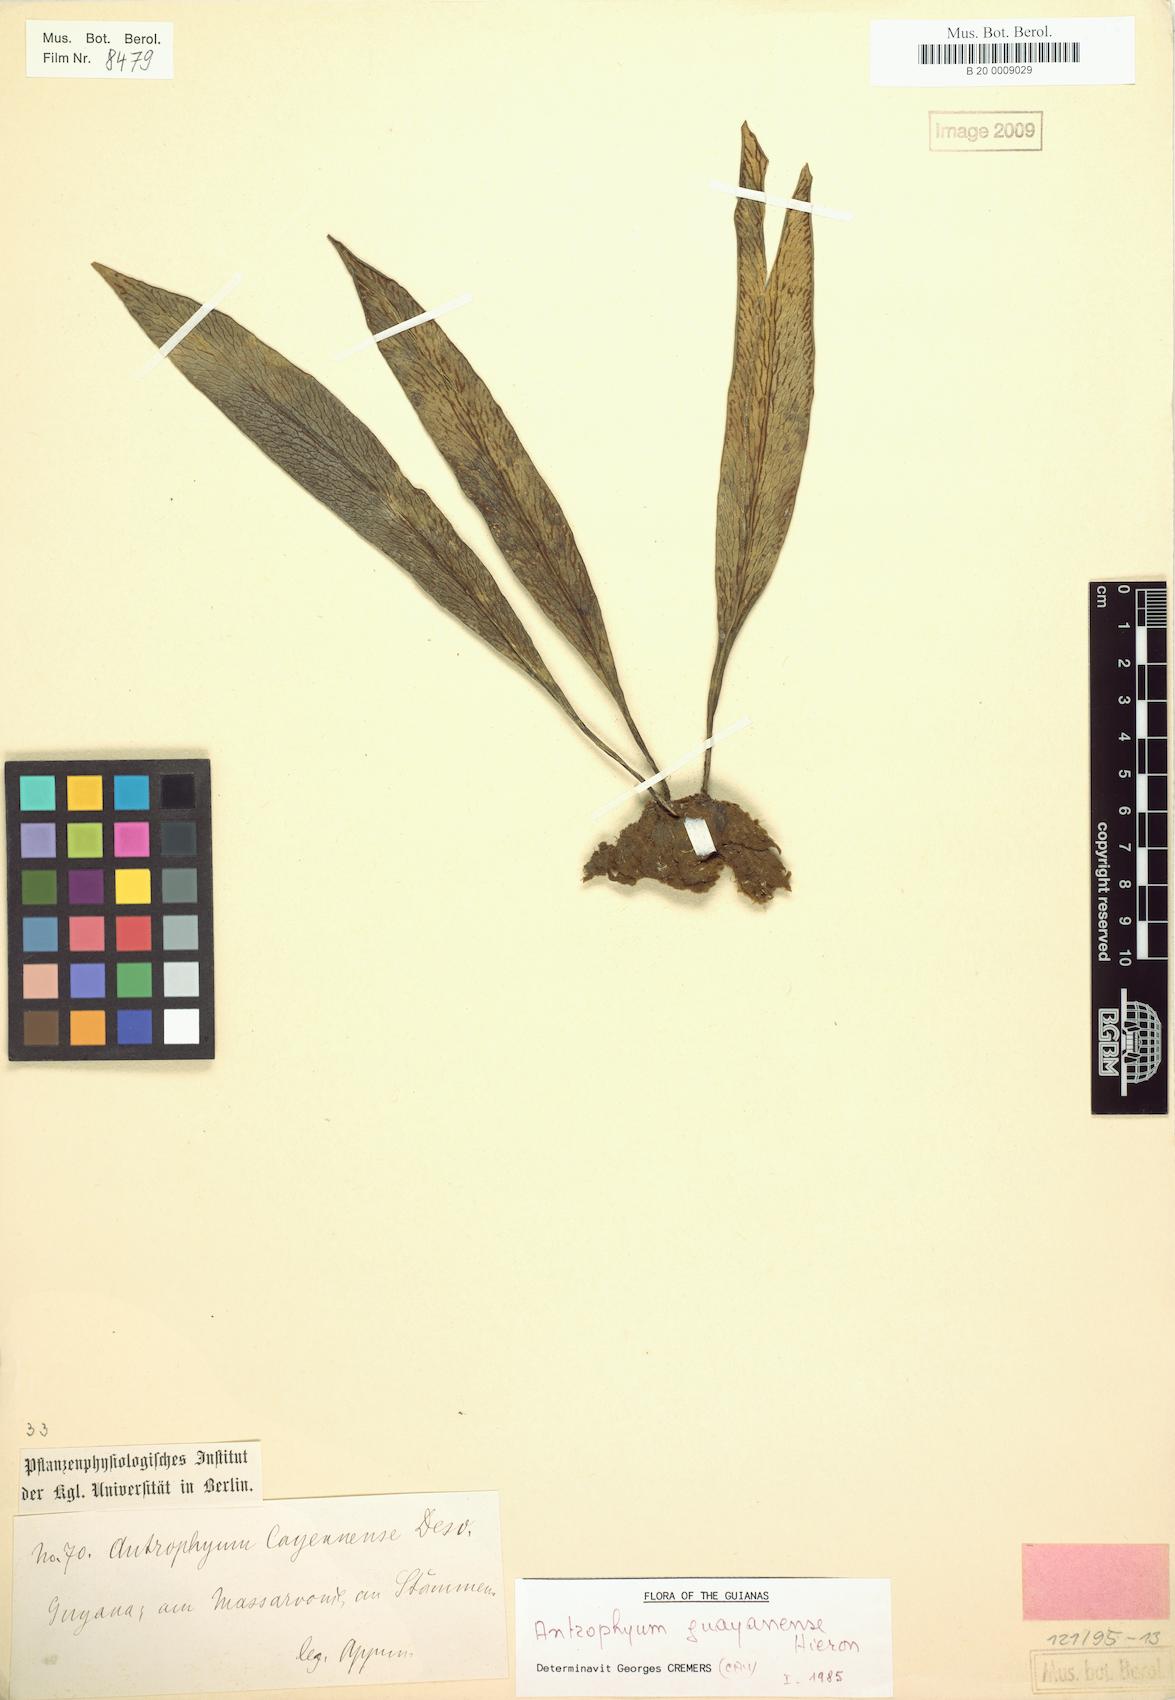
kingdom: Plantae
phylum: Tracheophyta
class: Polypodiopsida
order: Polypodiales
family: Pteridaceae
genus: Polytaenium
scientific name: Polytaenium guayanense
